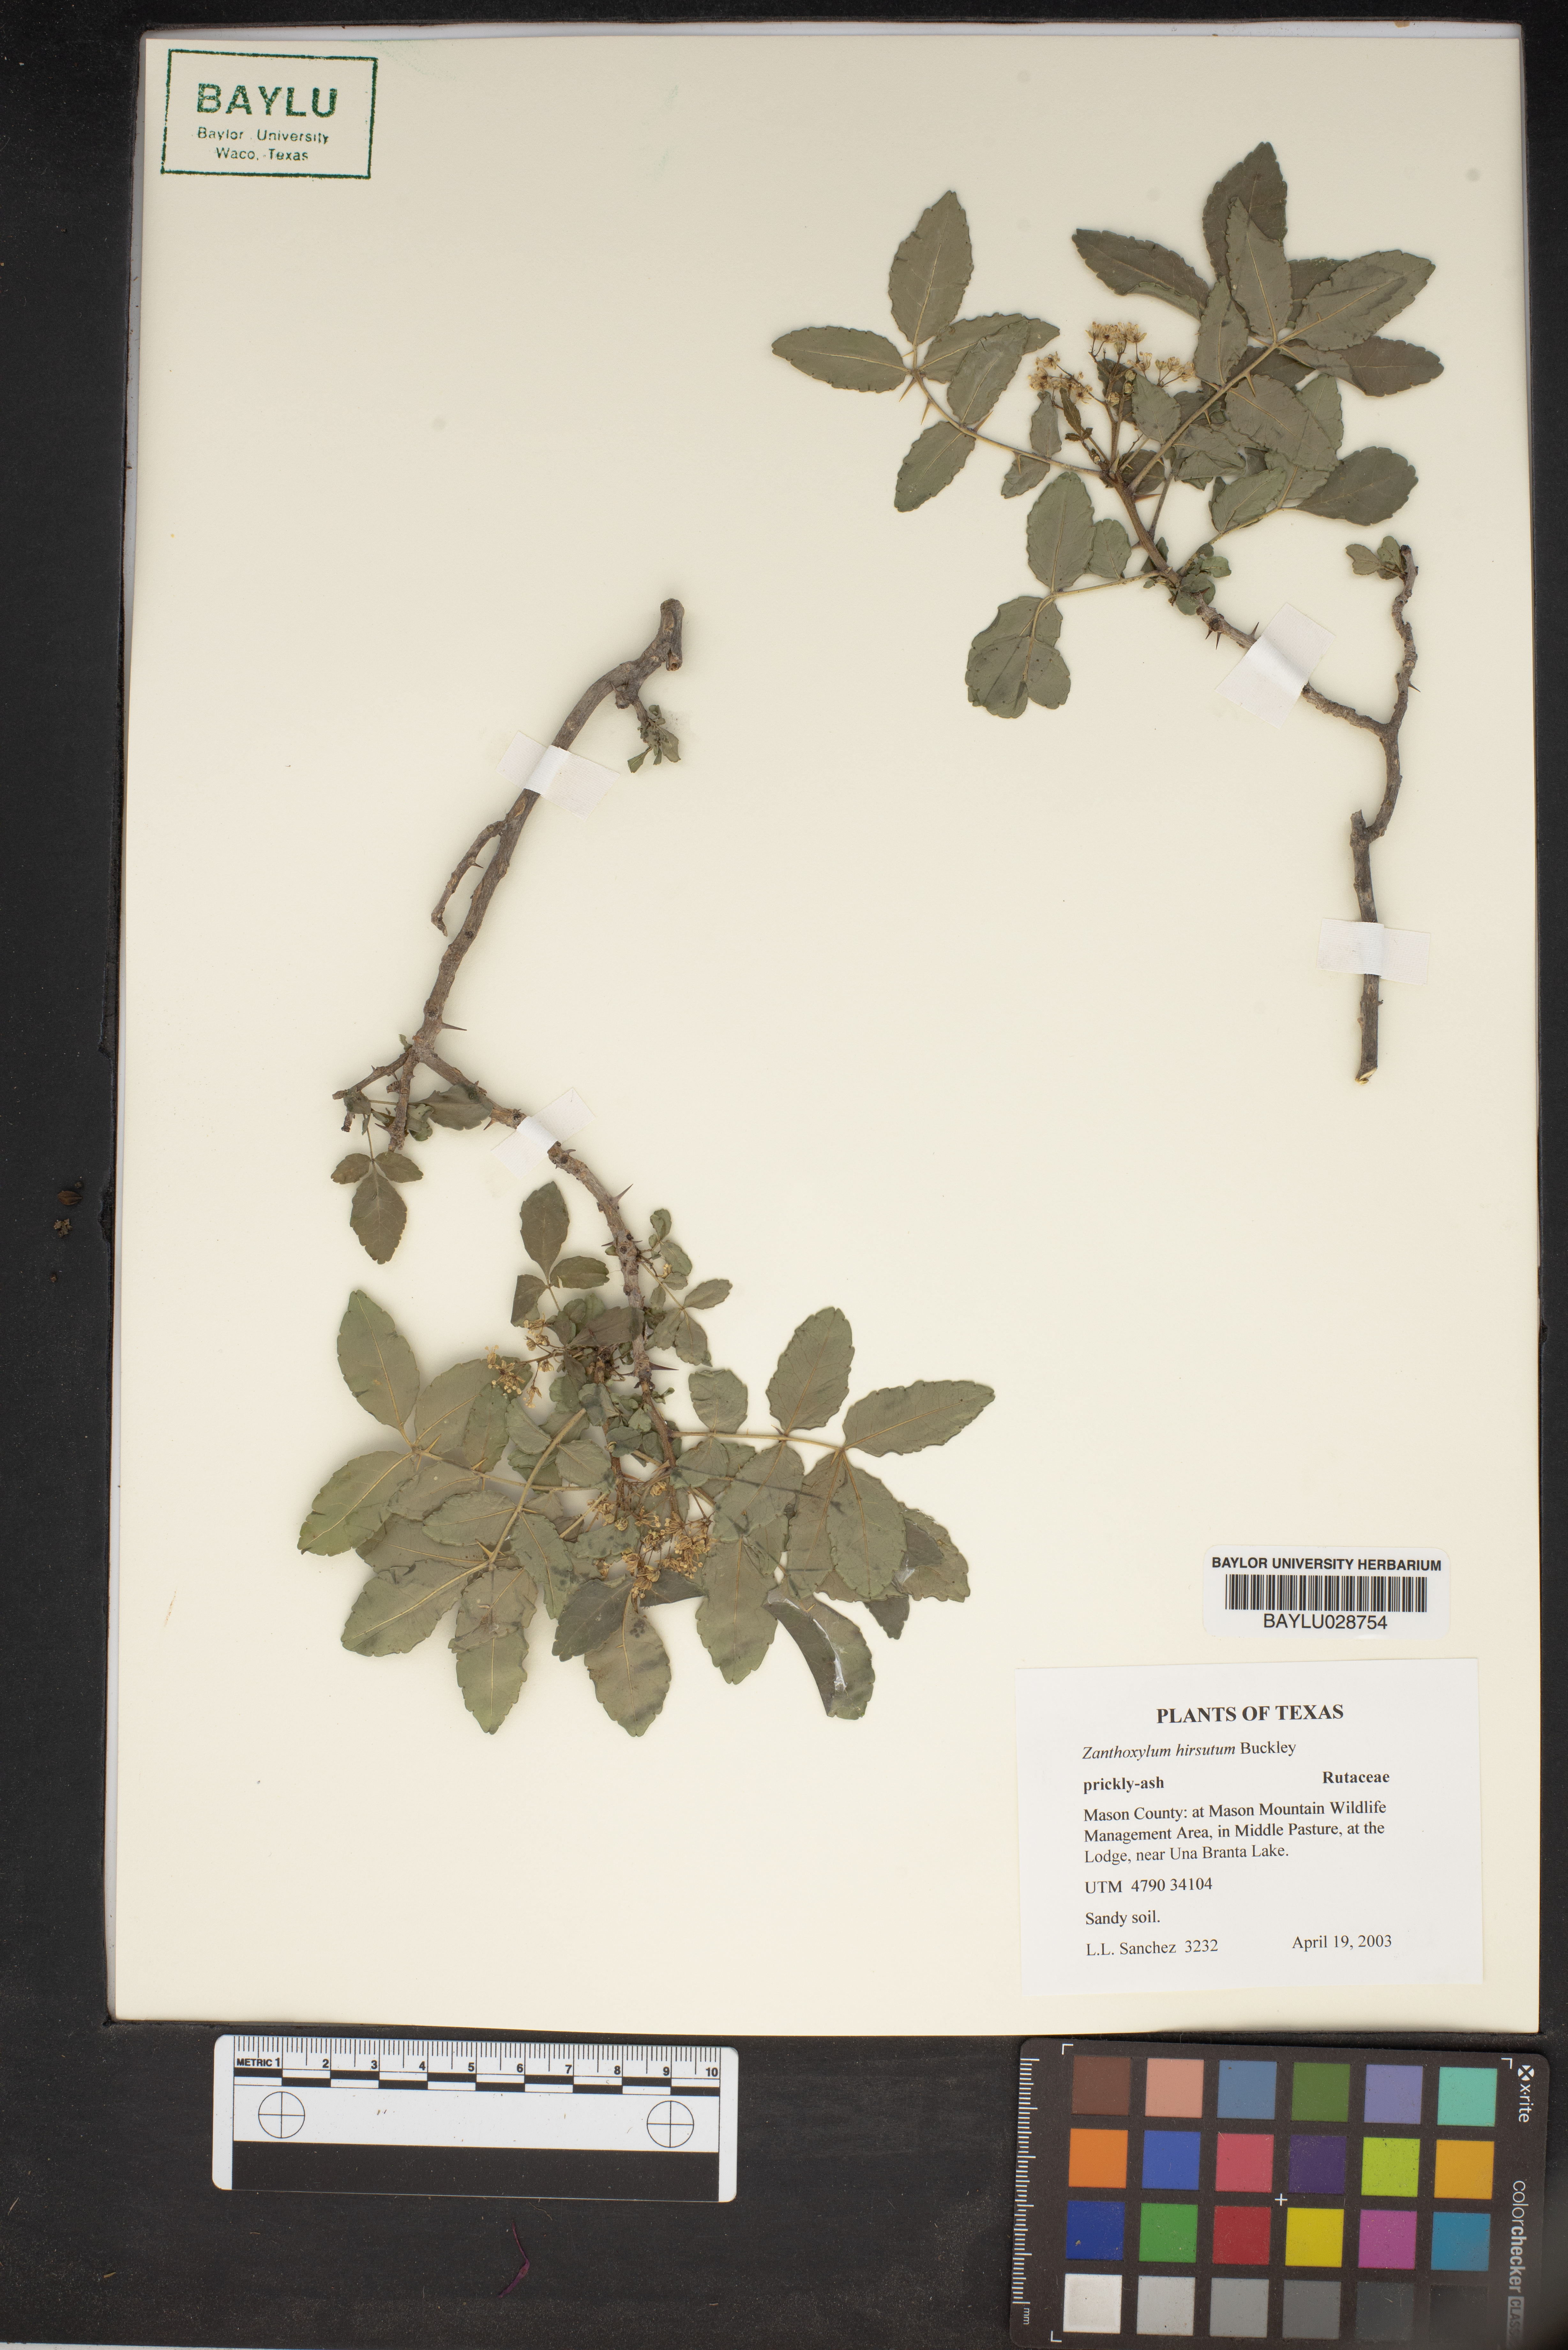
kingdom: Plantae
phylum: Tracheophyta
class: Magnoliopsida
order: Sapindales
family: Rutaceae
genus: Zanthoxylum
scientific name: Zanthoxylum clava-herculis
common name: Hercules'-club
